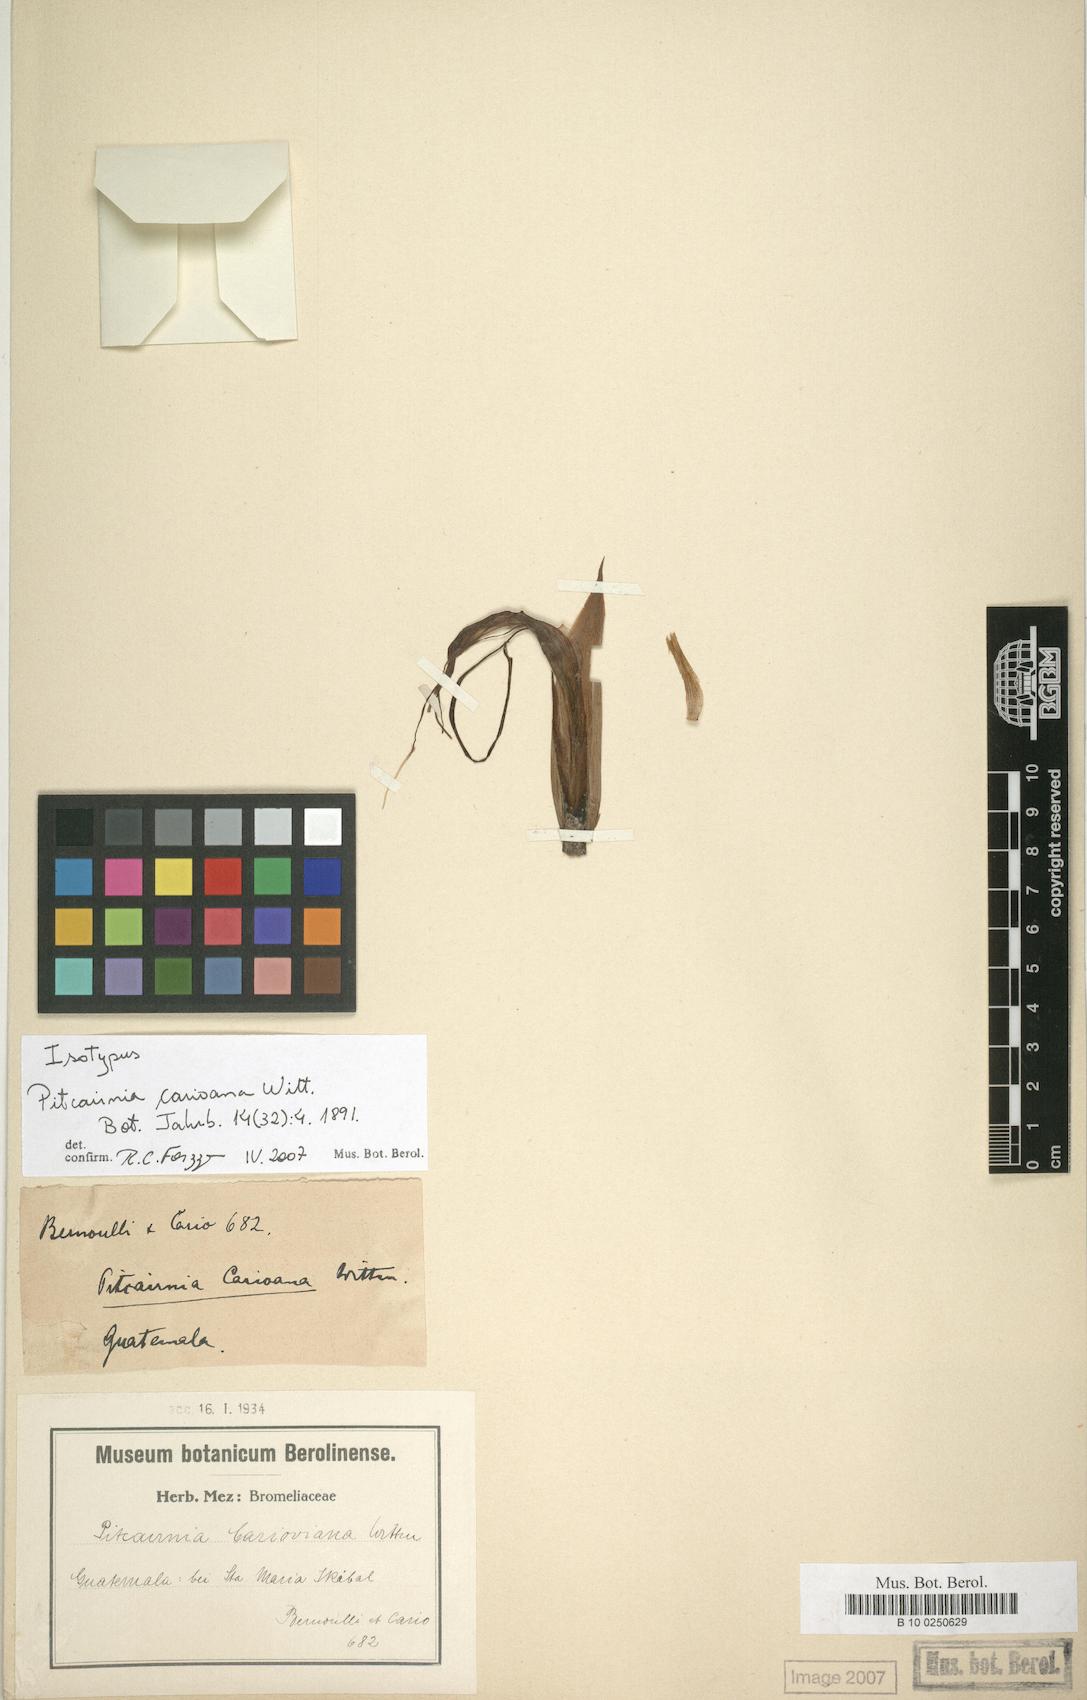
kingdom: Plantae
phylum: Tracheophyta
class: Liliopsida
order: Poales
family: Bromeliaceae
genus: Pitcairnia
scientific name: Pitcairnia carioana
